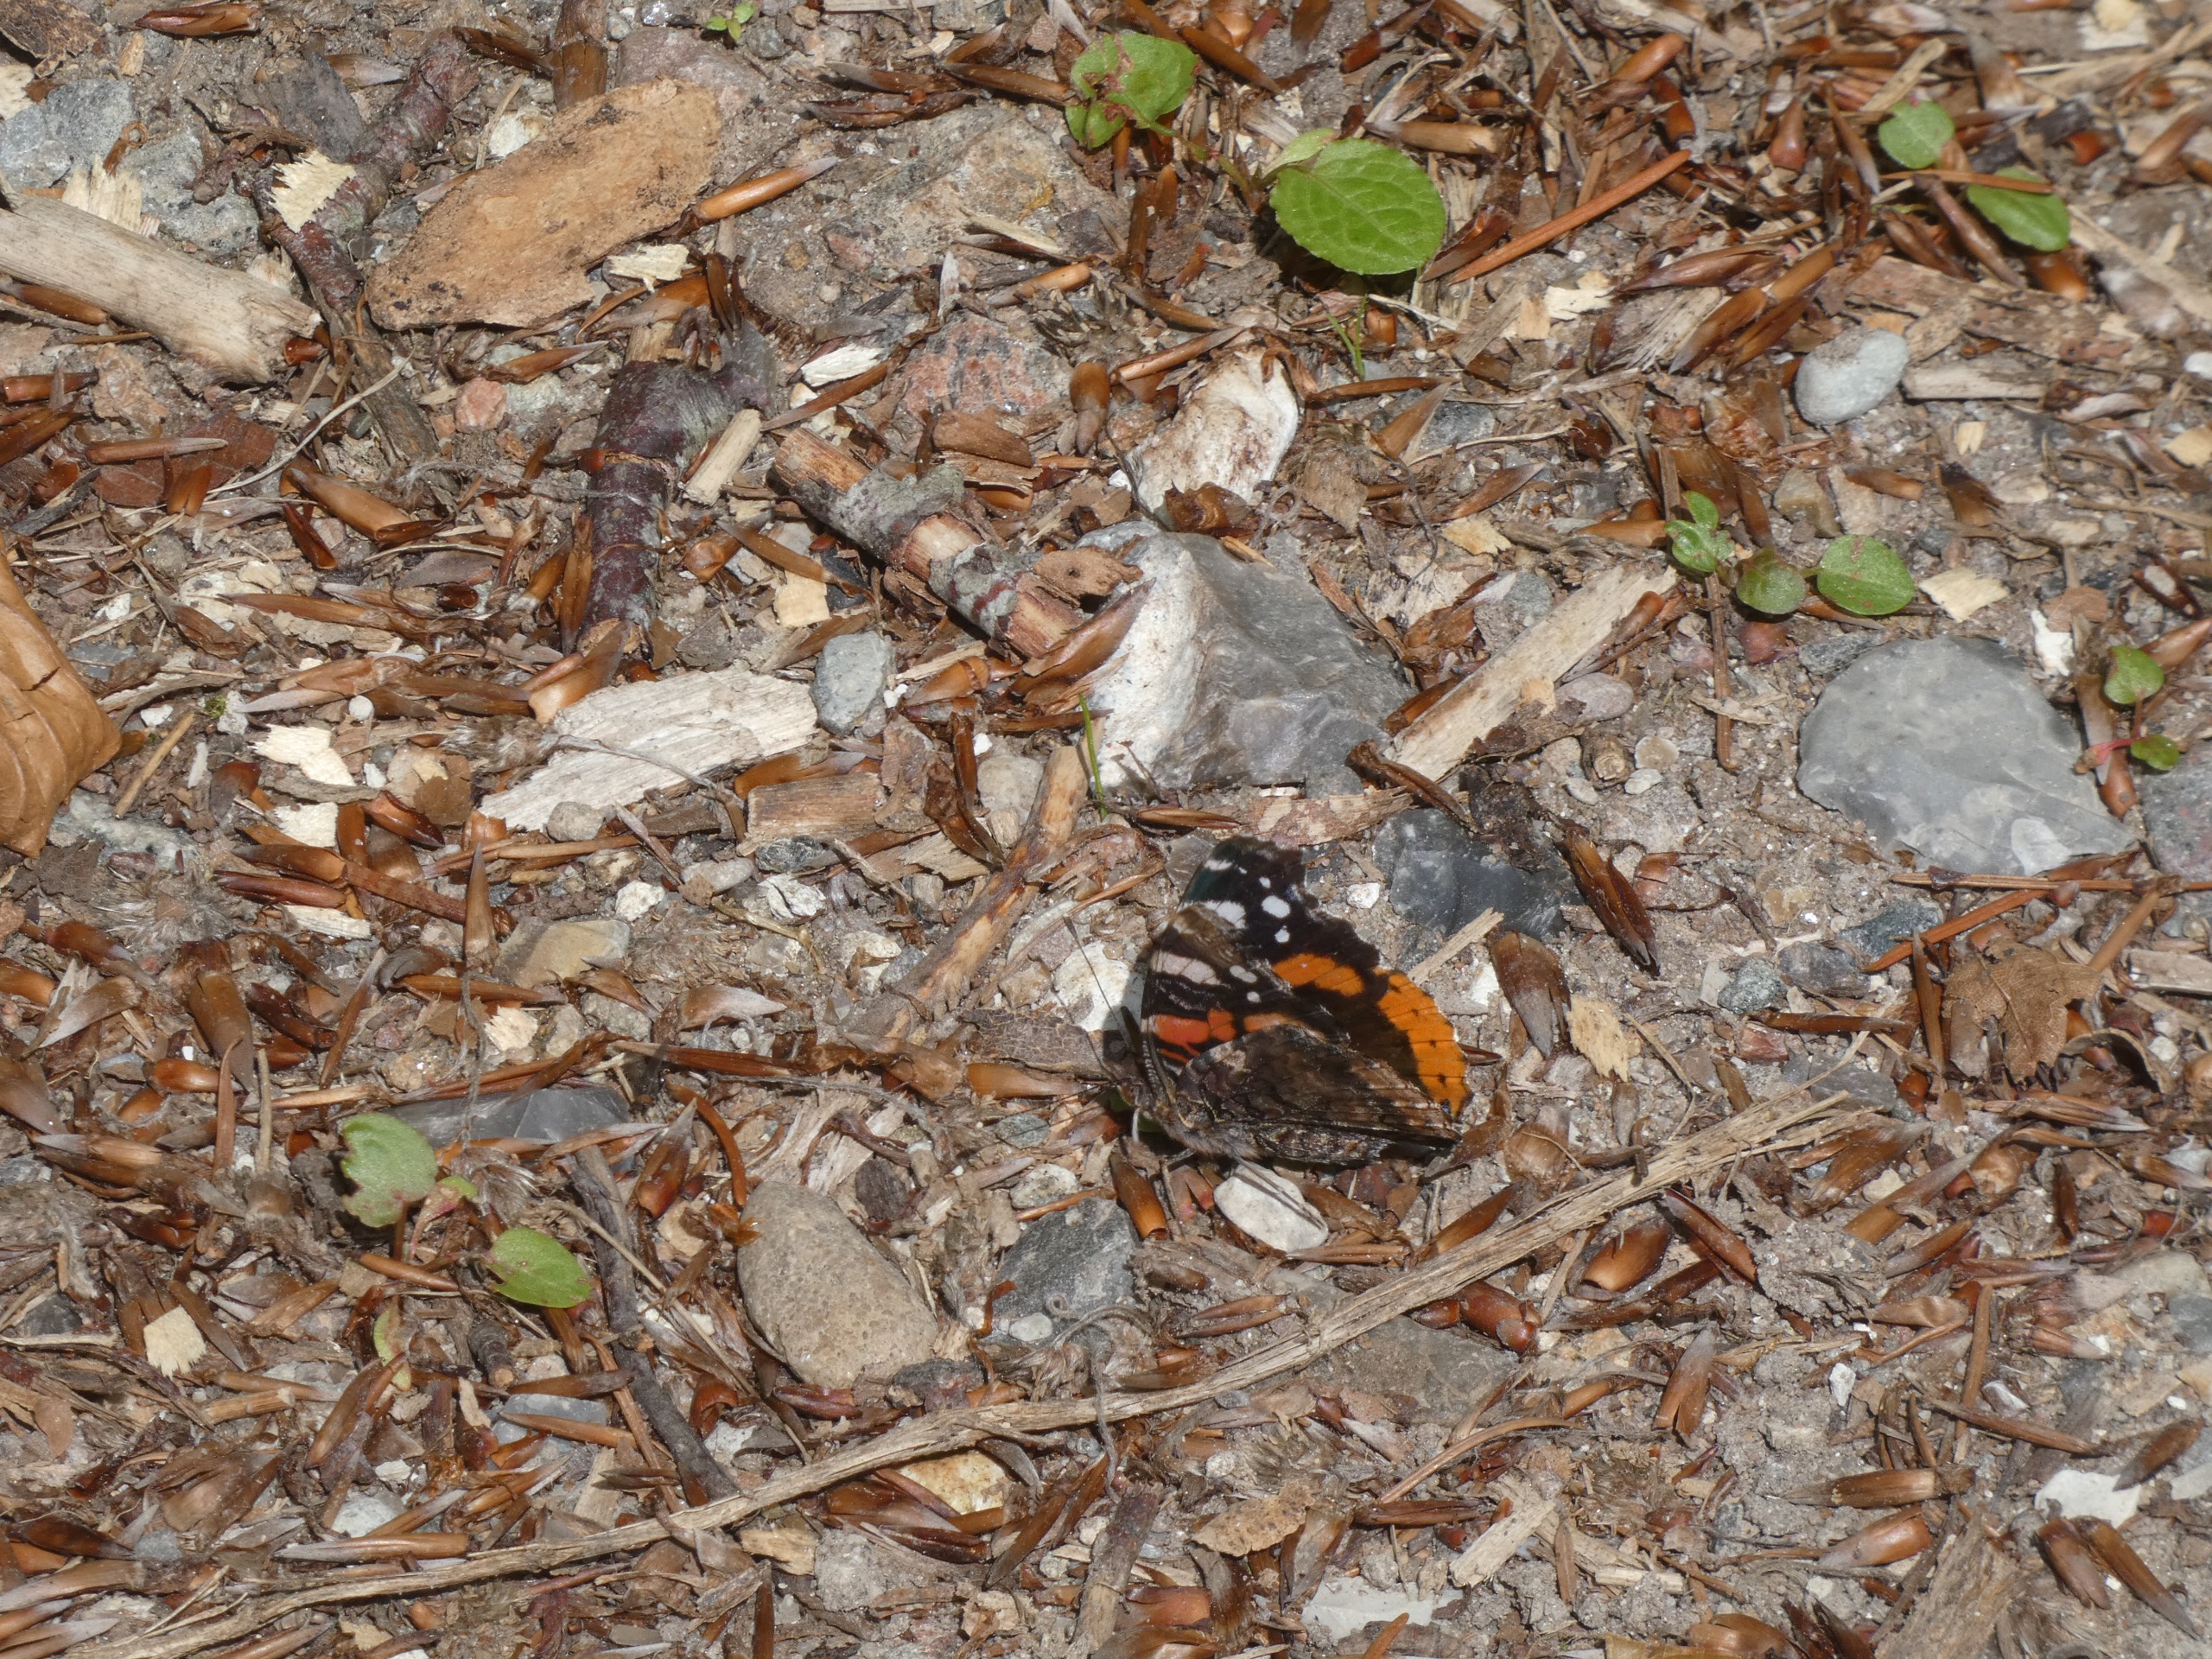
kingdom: Animalia
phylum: Arthropoda
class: Insecta
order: Lepidoptera
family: Nymphalidae
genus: Vanessa
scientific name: Vanessa atalanta
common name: Admiral
